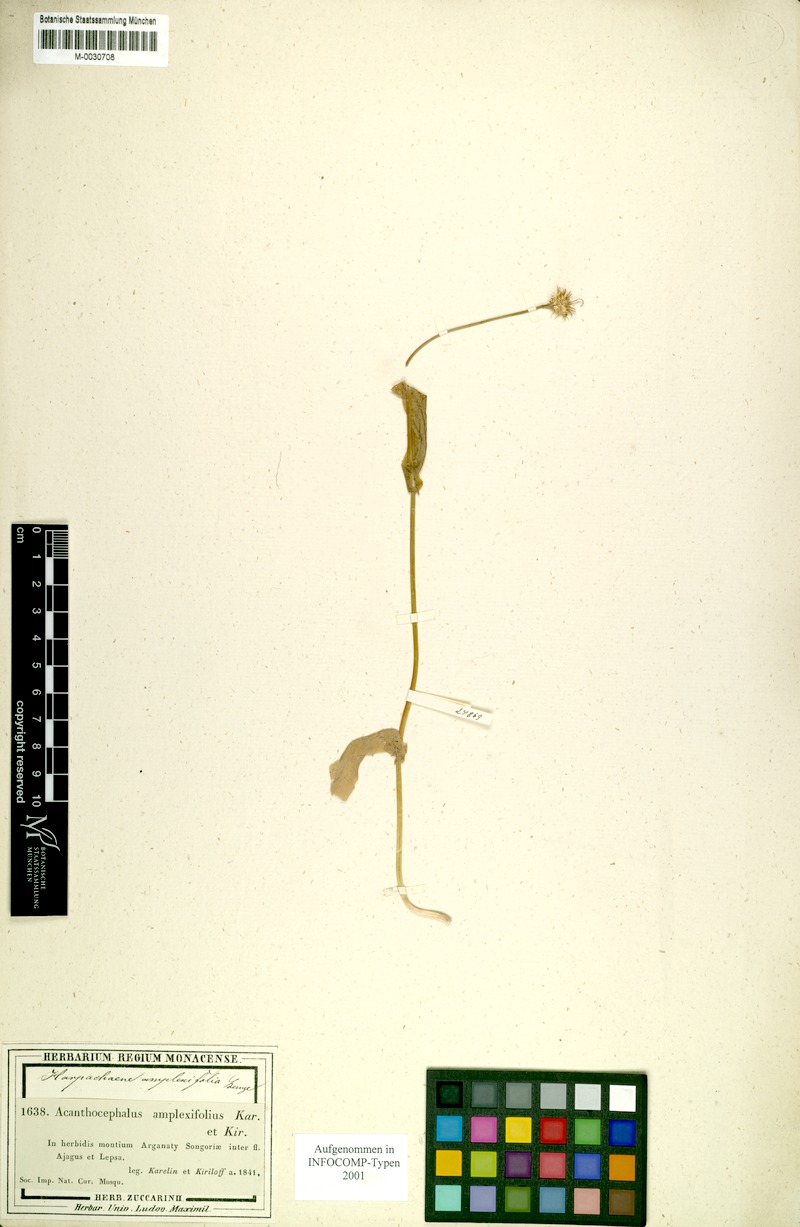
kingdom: Plantae
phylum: Tracheophyta
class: Magnoliopsida
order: Asterales
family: Asteraceae
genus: Acanthocephalus
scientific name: Acanthocephalus amplexifolius
